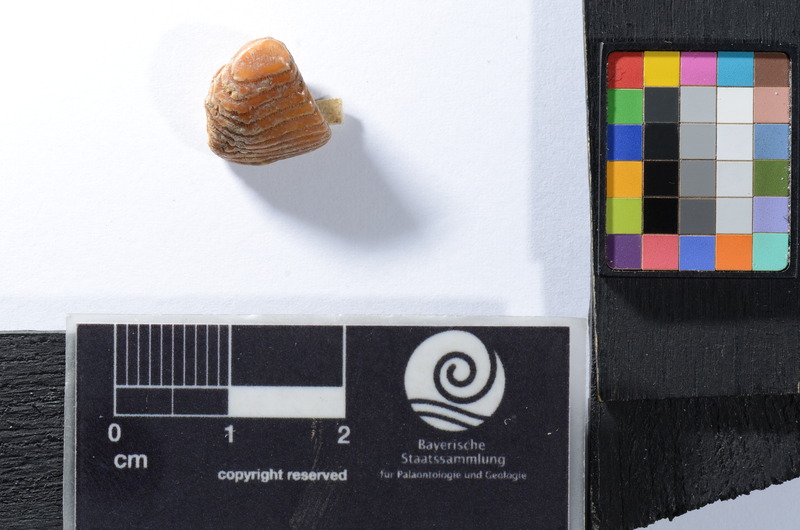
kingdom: Animalia
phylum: Chordata
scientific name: Chordata
